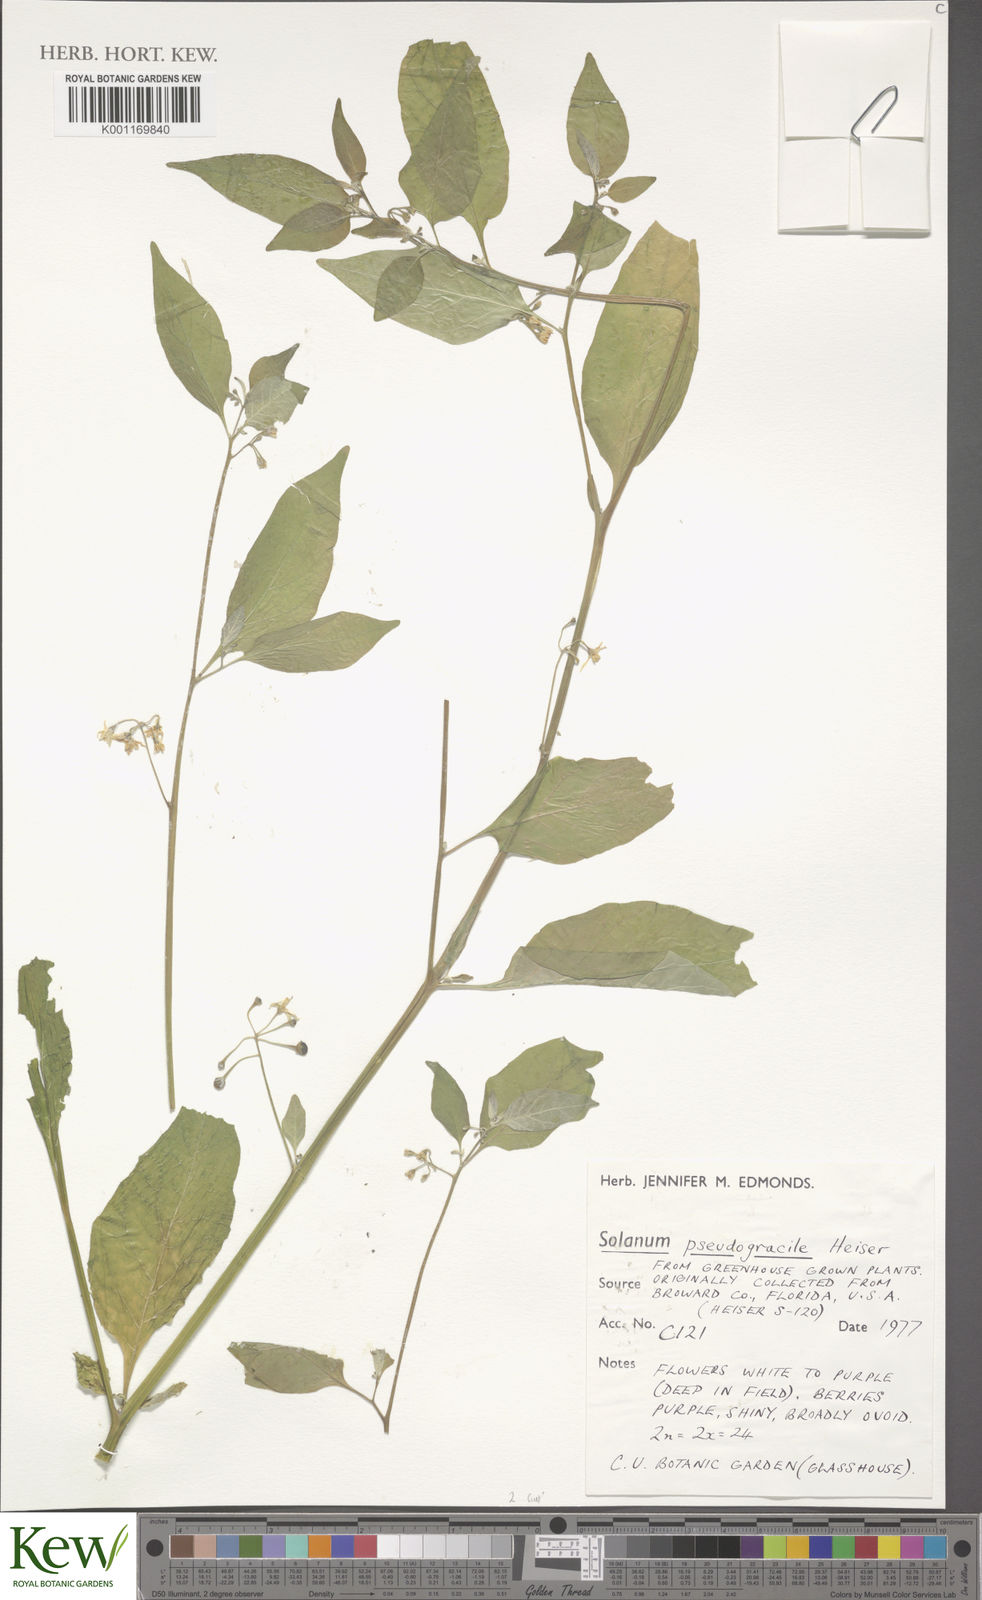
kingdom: Plantae
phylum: Tracheophyta
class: Magnoliopsida
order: Solanales
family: Solanaceae
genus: Solanum
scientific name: Solanum pseudogracile
